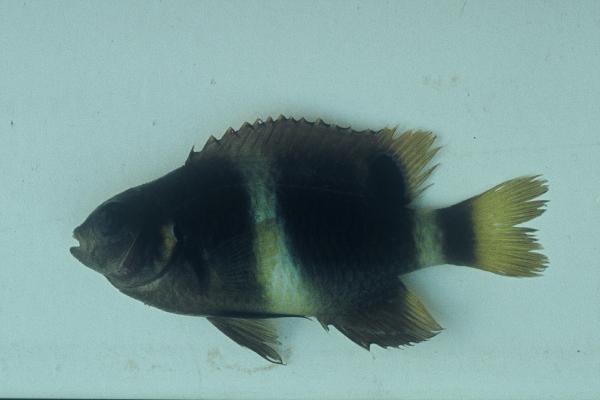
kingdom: Animalia
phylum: Chordata
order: Perciformes
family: Pomacentridae
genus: Chrysiptera
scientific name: Chrysiptera brownriggii
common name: Surge demoiselle
